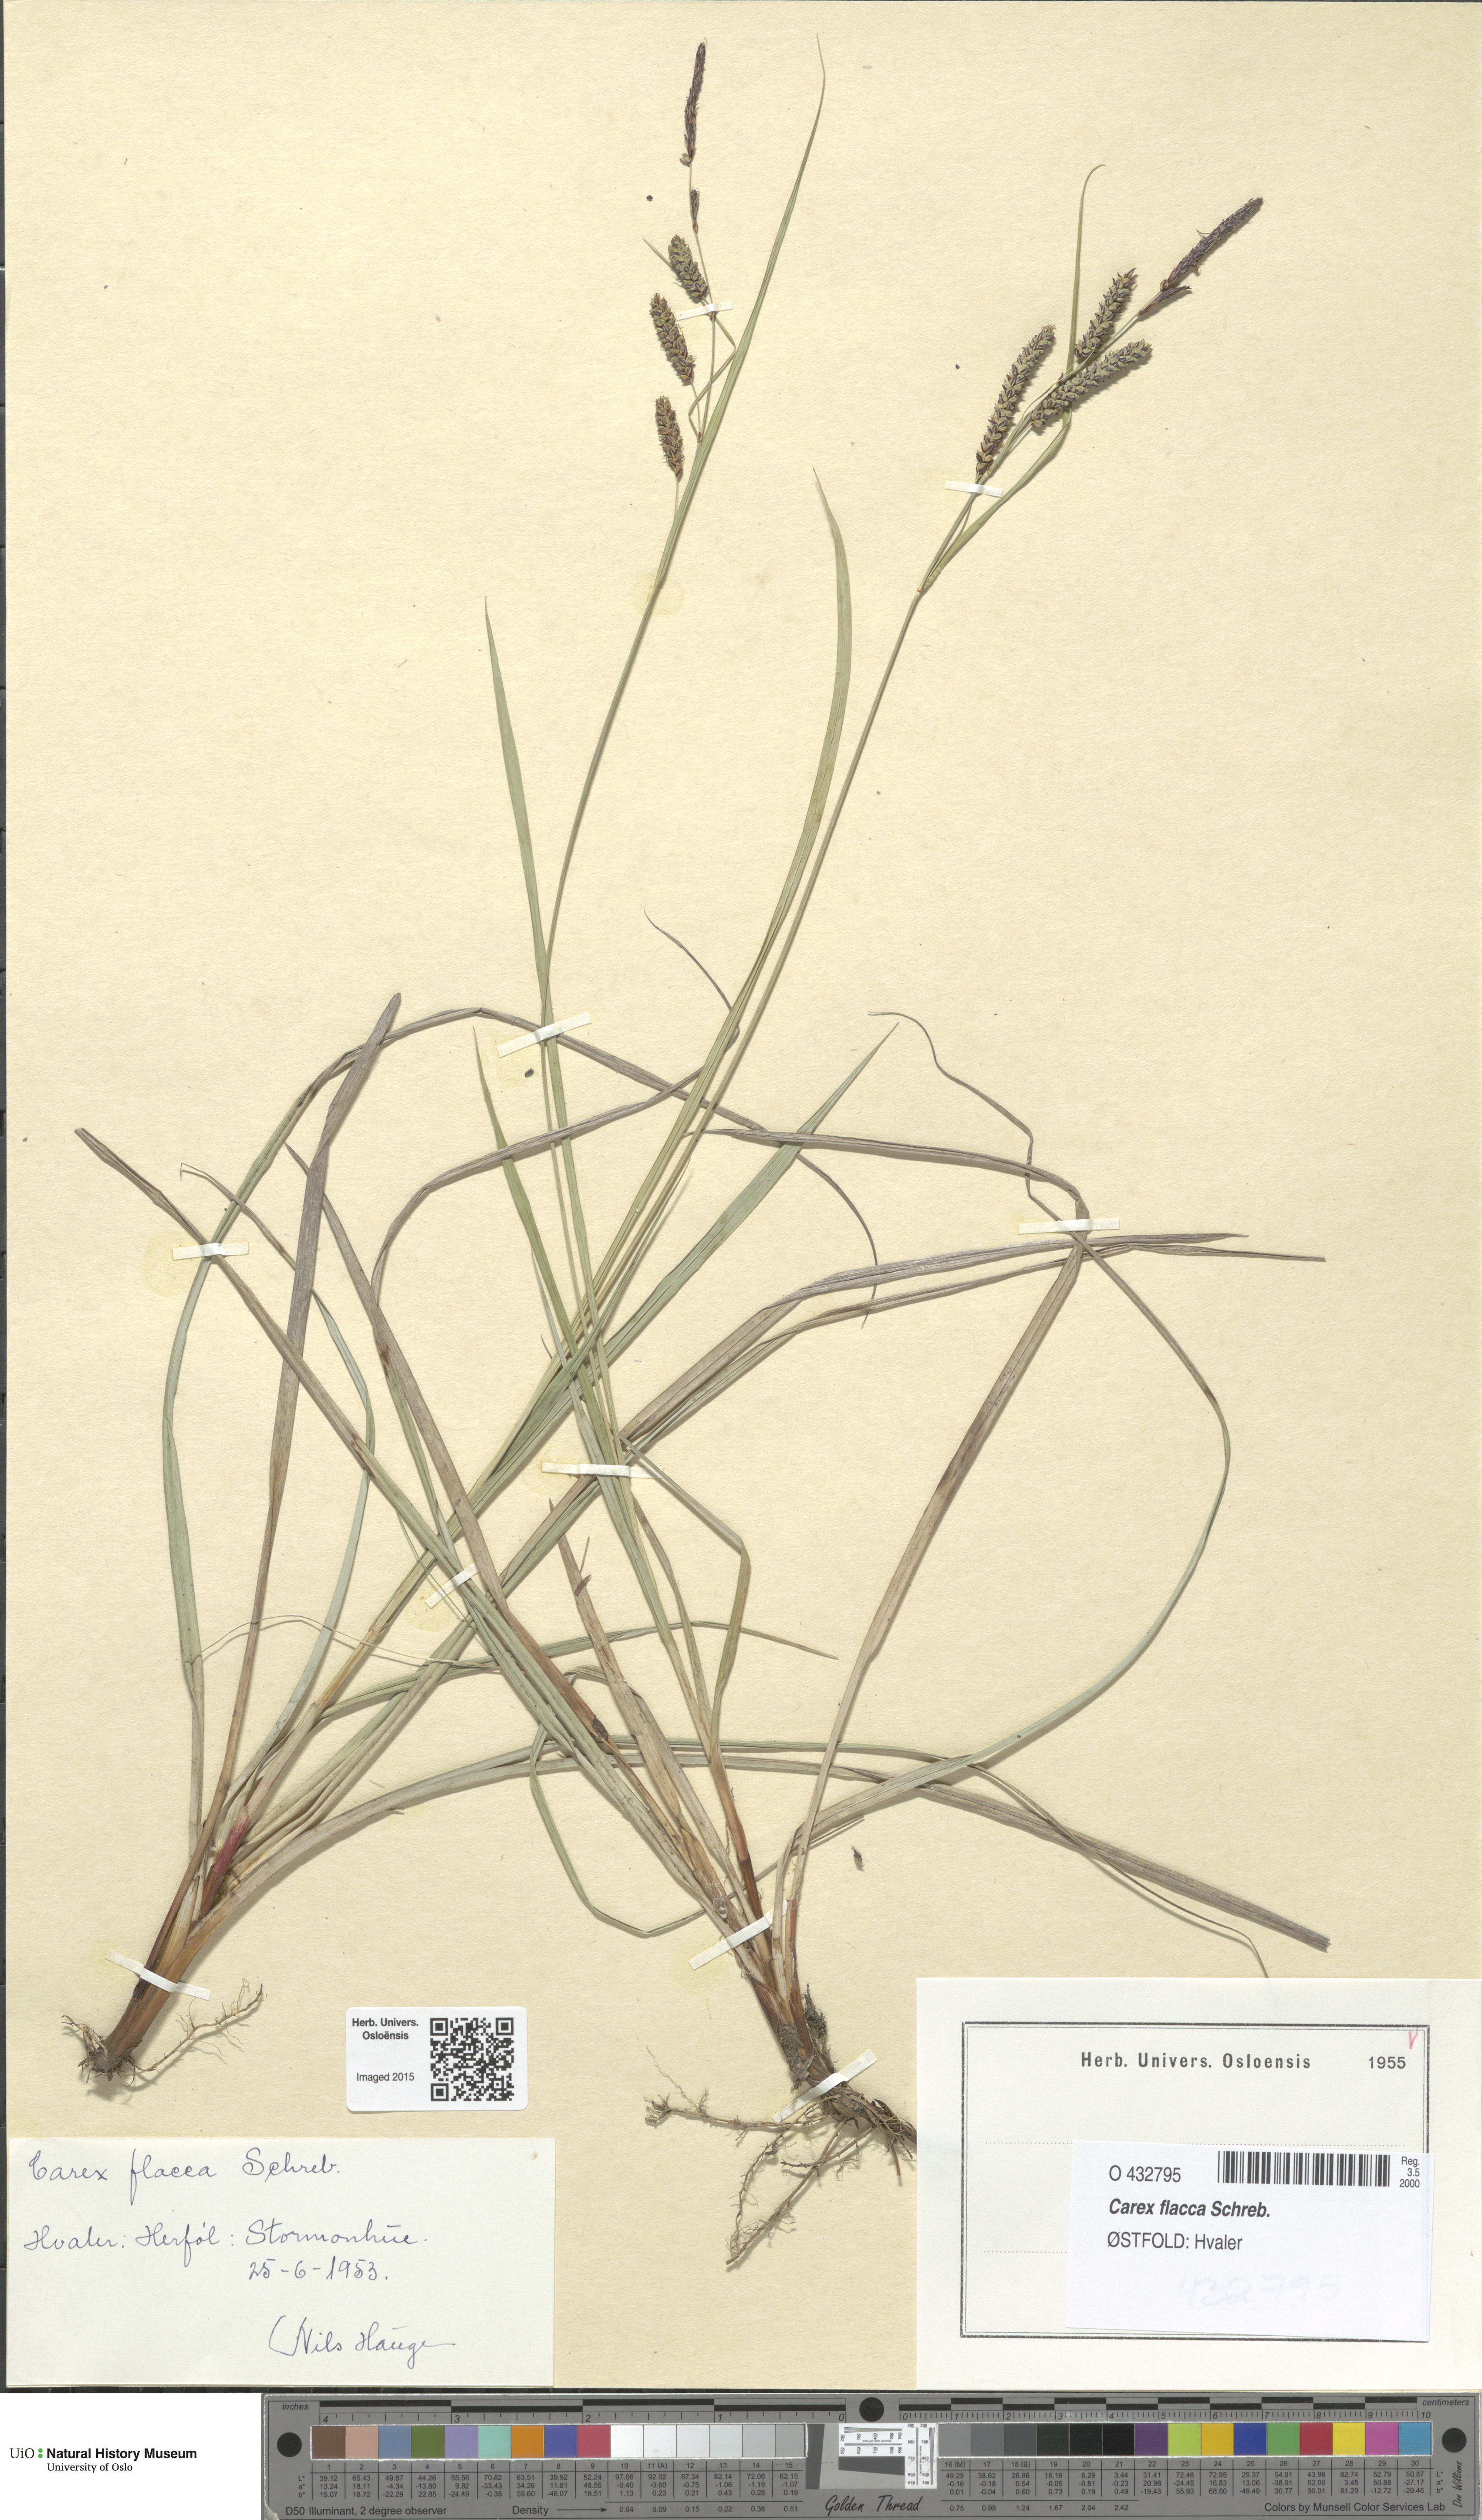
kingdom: Plantae
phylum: Tracheophyta
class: Liliopsida
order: Poales
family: Cyperaceae
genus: Carex
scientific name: Carex flacca
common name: Glaucous sedge
